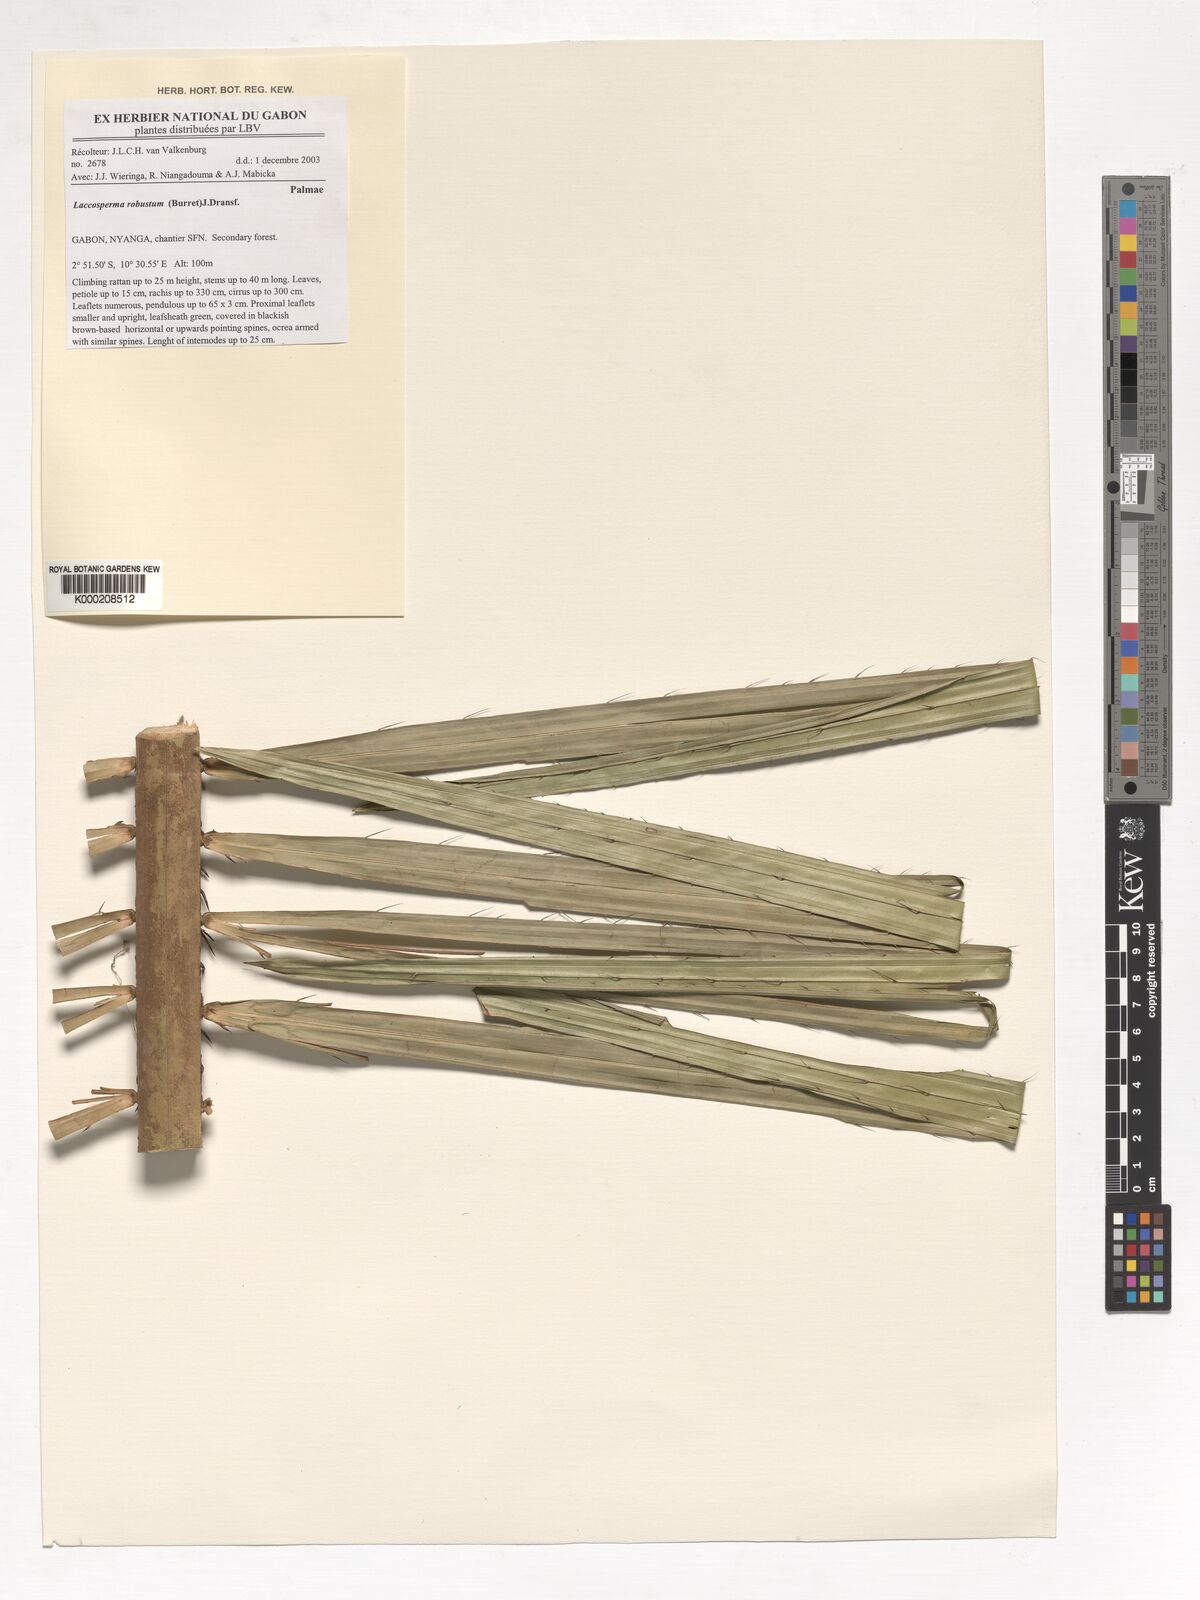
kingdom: Plantae
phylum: Tracheophyta
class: Liliopsida
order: Arecales
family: Arecaceae
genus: Laccosperma
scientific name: Laccosperma robustum
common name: Rattan
